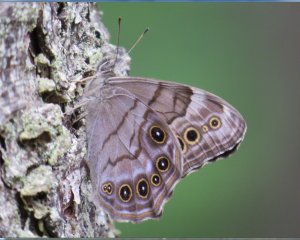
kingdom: Animalia
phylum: Arthropoda
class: Insecta
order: Lepidoptera
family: Nymphalidae
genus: Lethe
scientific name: Lethe anthedon
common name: Northern Pearly-Eye
